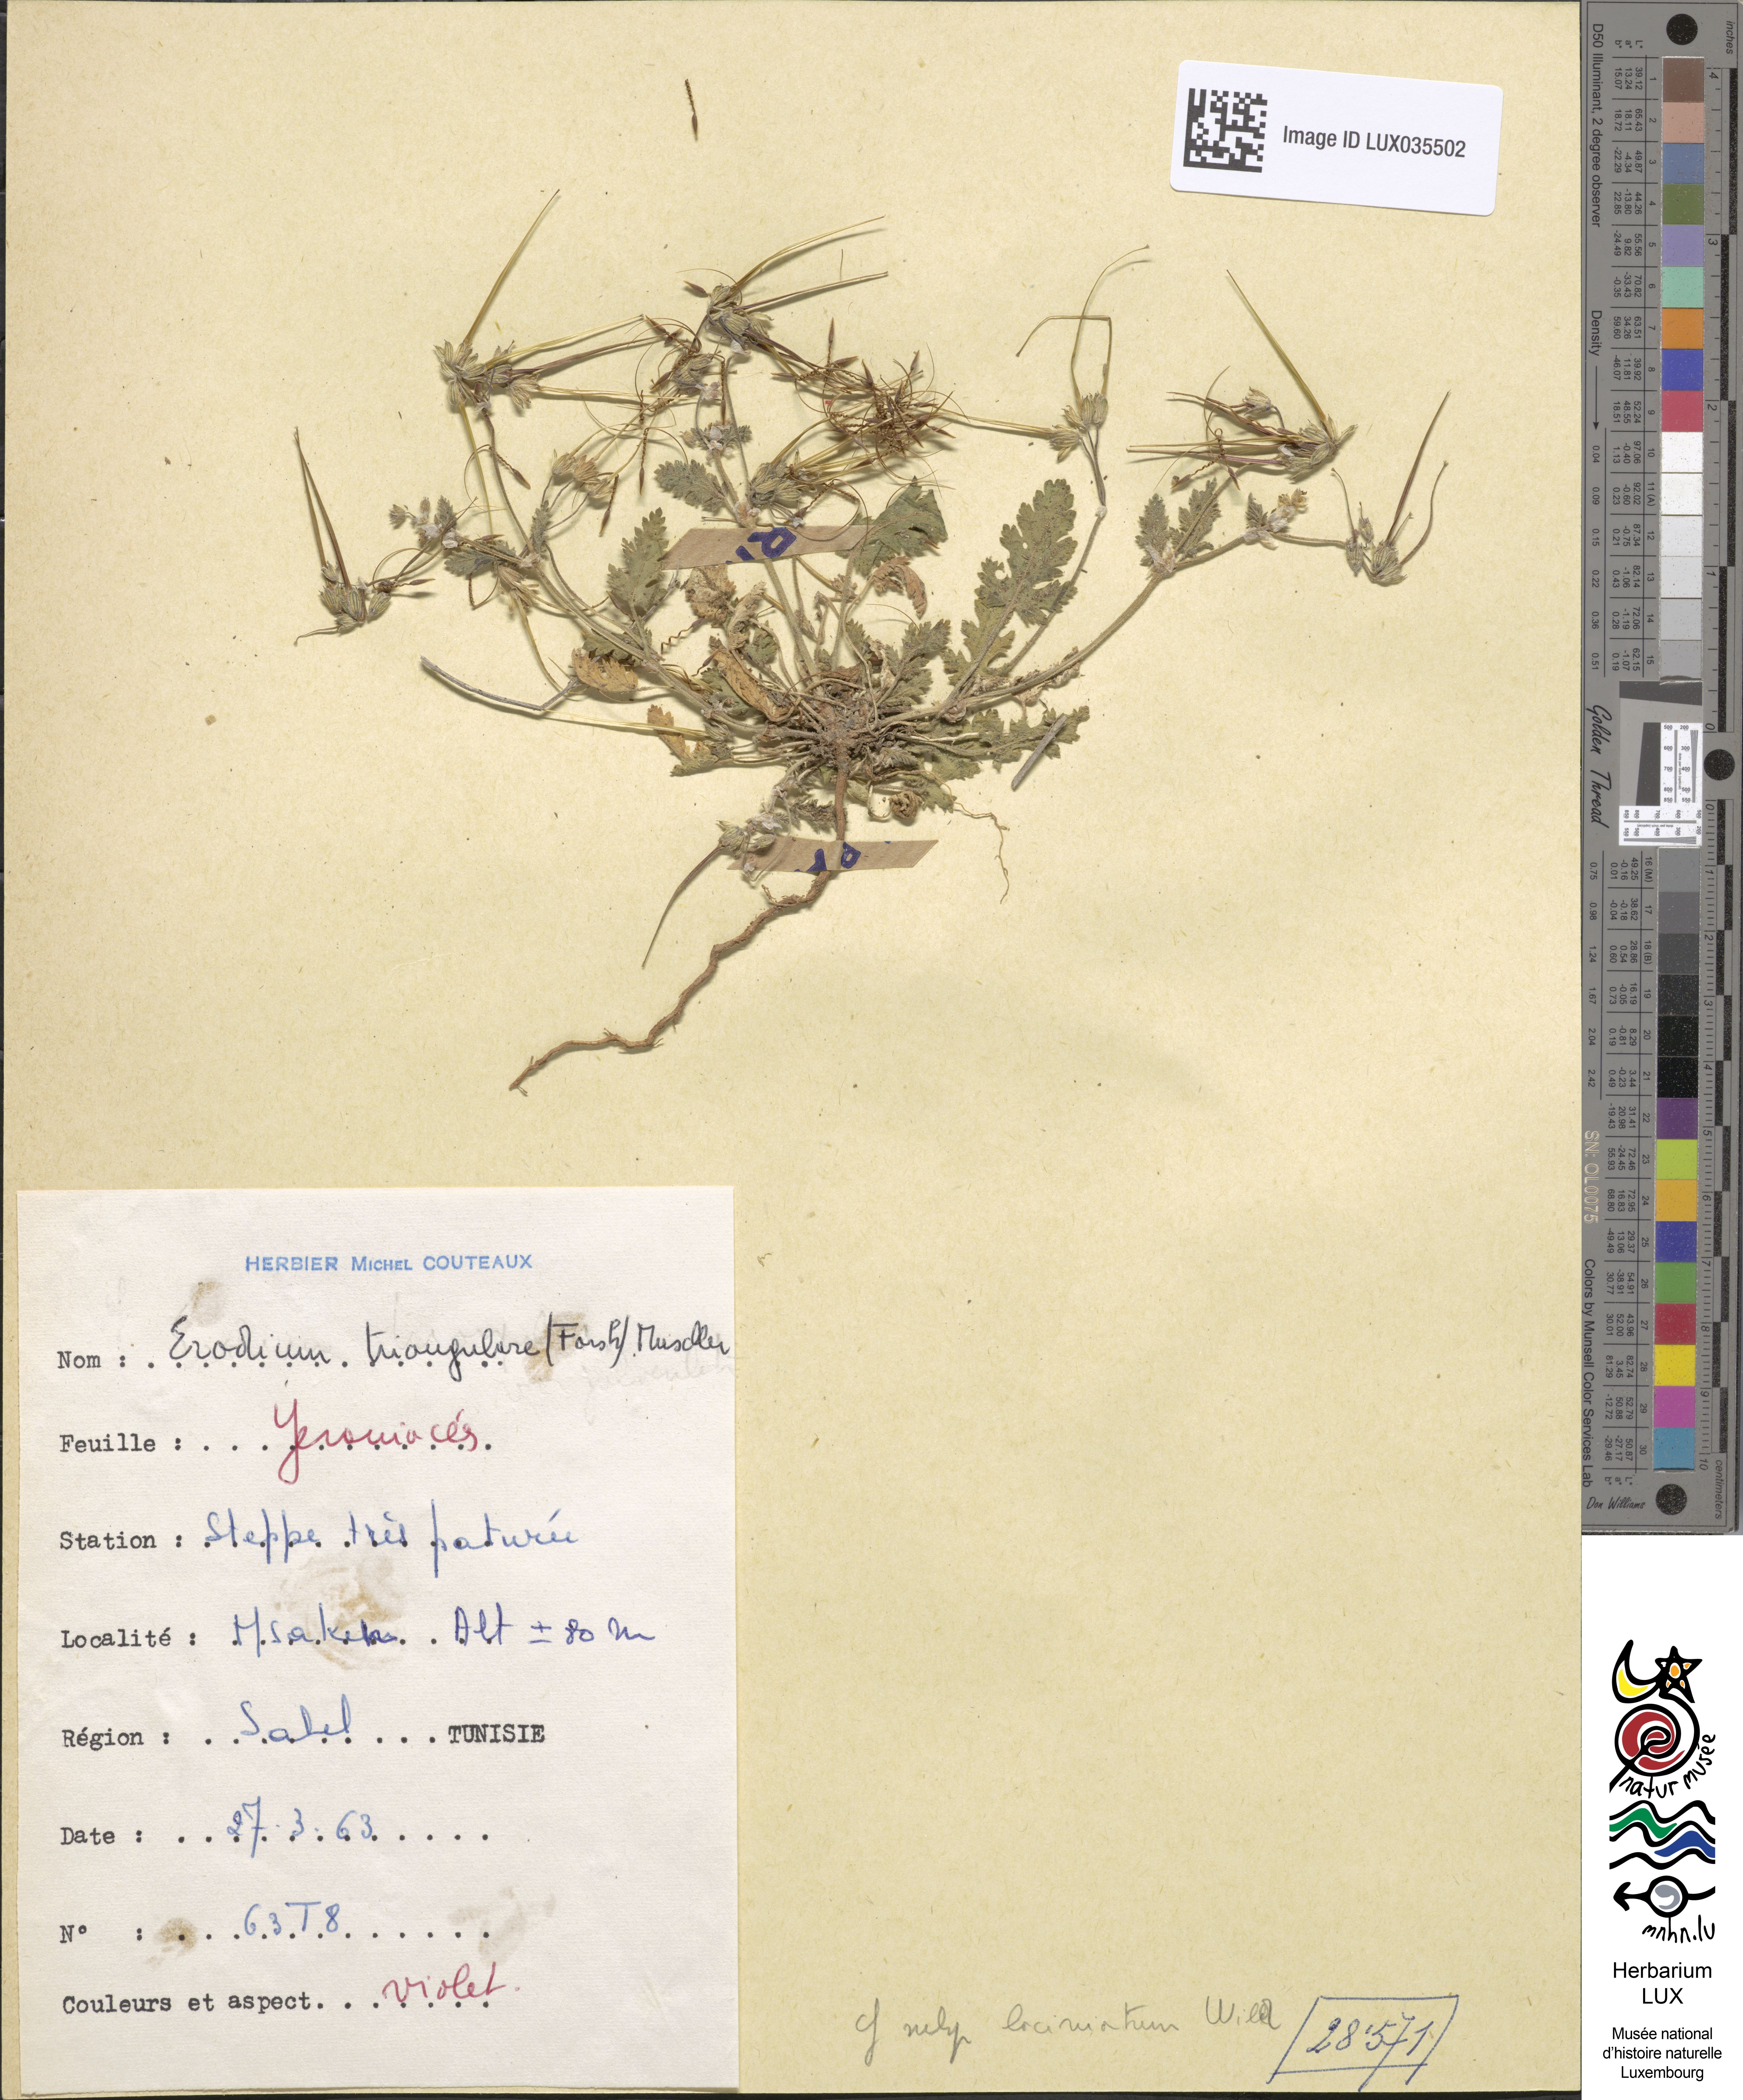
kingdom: Plantae
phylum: Tracheophyta
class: Magnoliopsida
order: Geraniales
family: Geraniaceae
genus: Erodium
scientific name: Erodium laciniatum
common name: Cutleaf stork's bill
